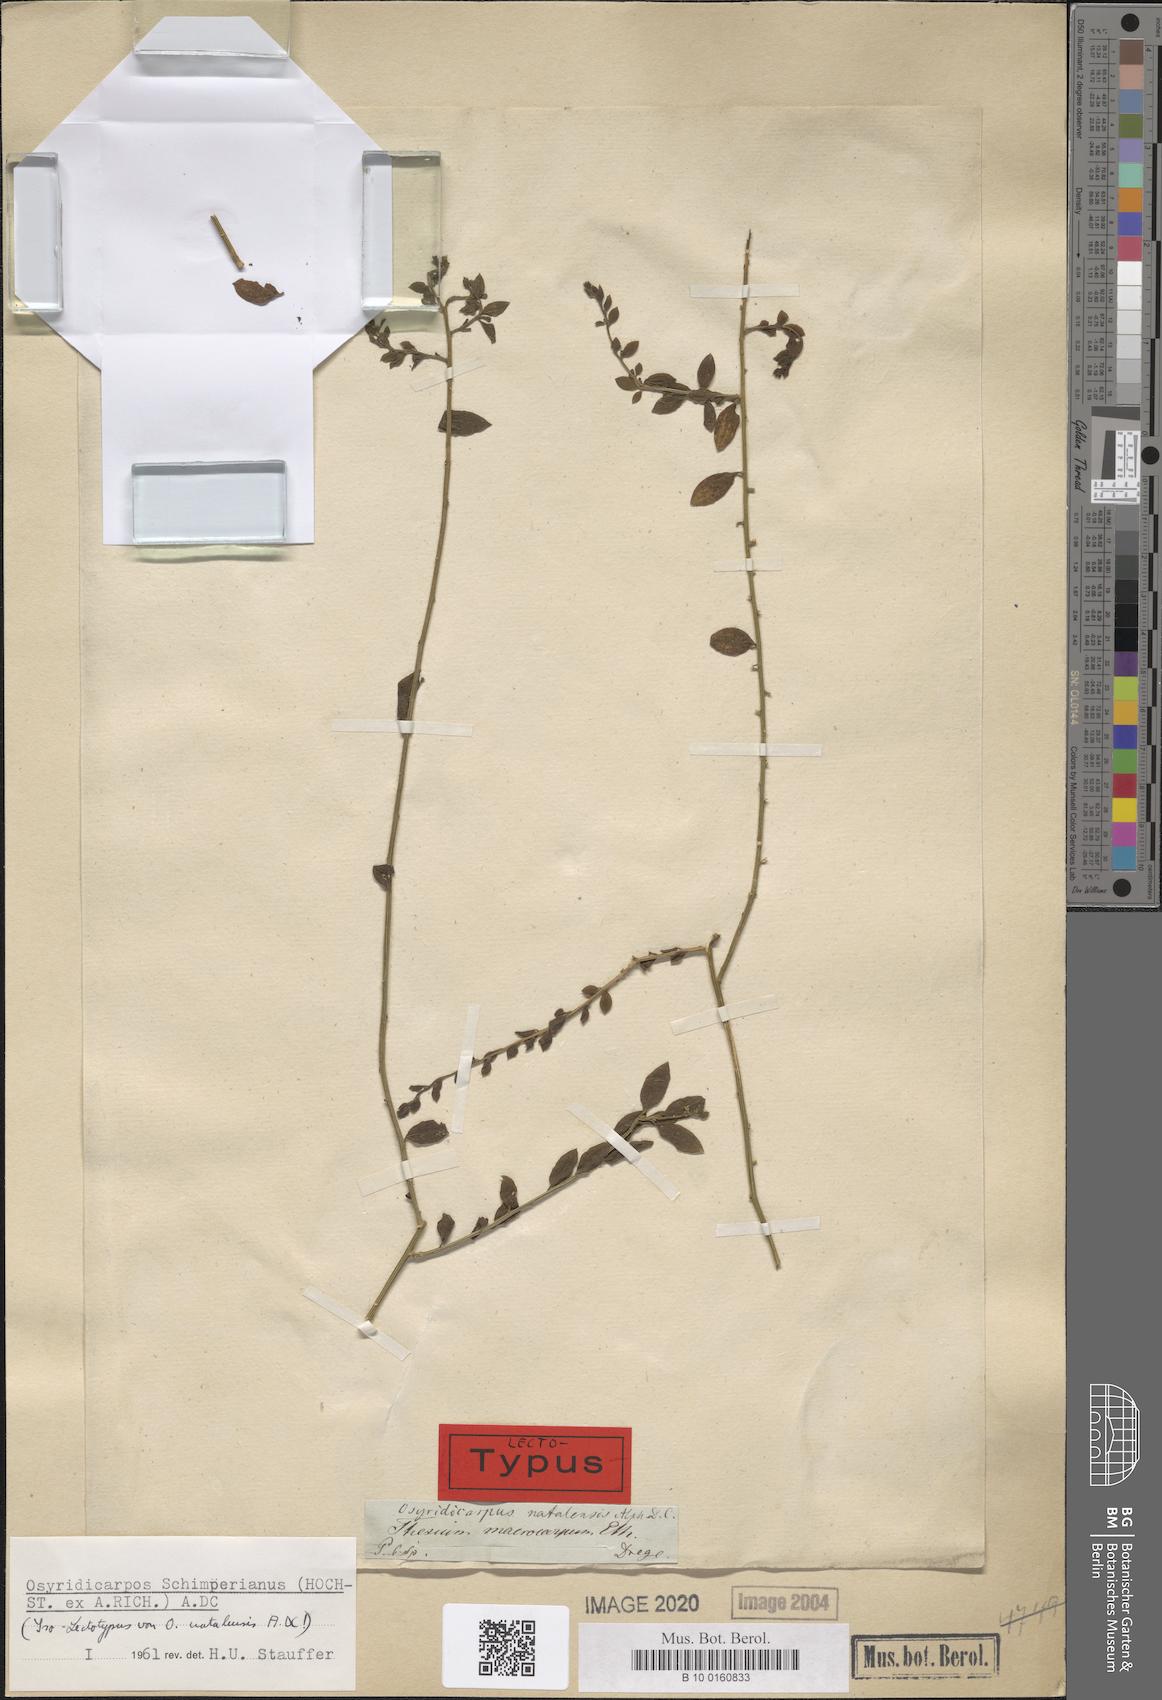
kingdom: Plantae
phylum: Tracheophyta
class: Magnoliopsida
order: Santalales
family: Thesiaceae
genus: Osyridicarpos
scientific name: Osyridicarpos schimperianus
